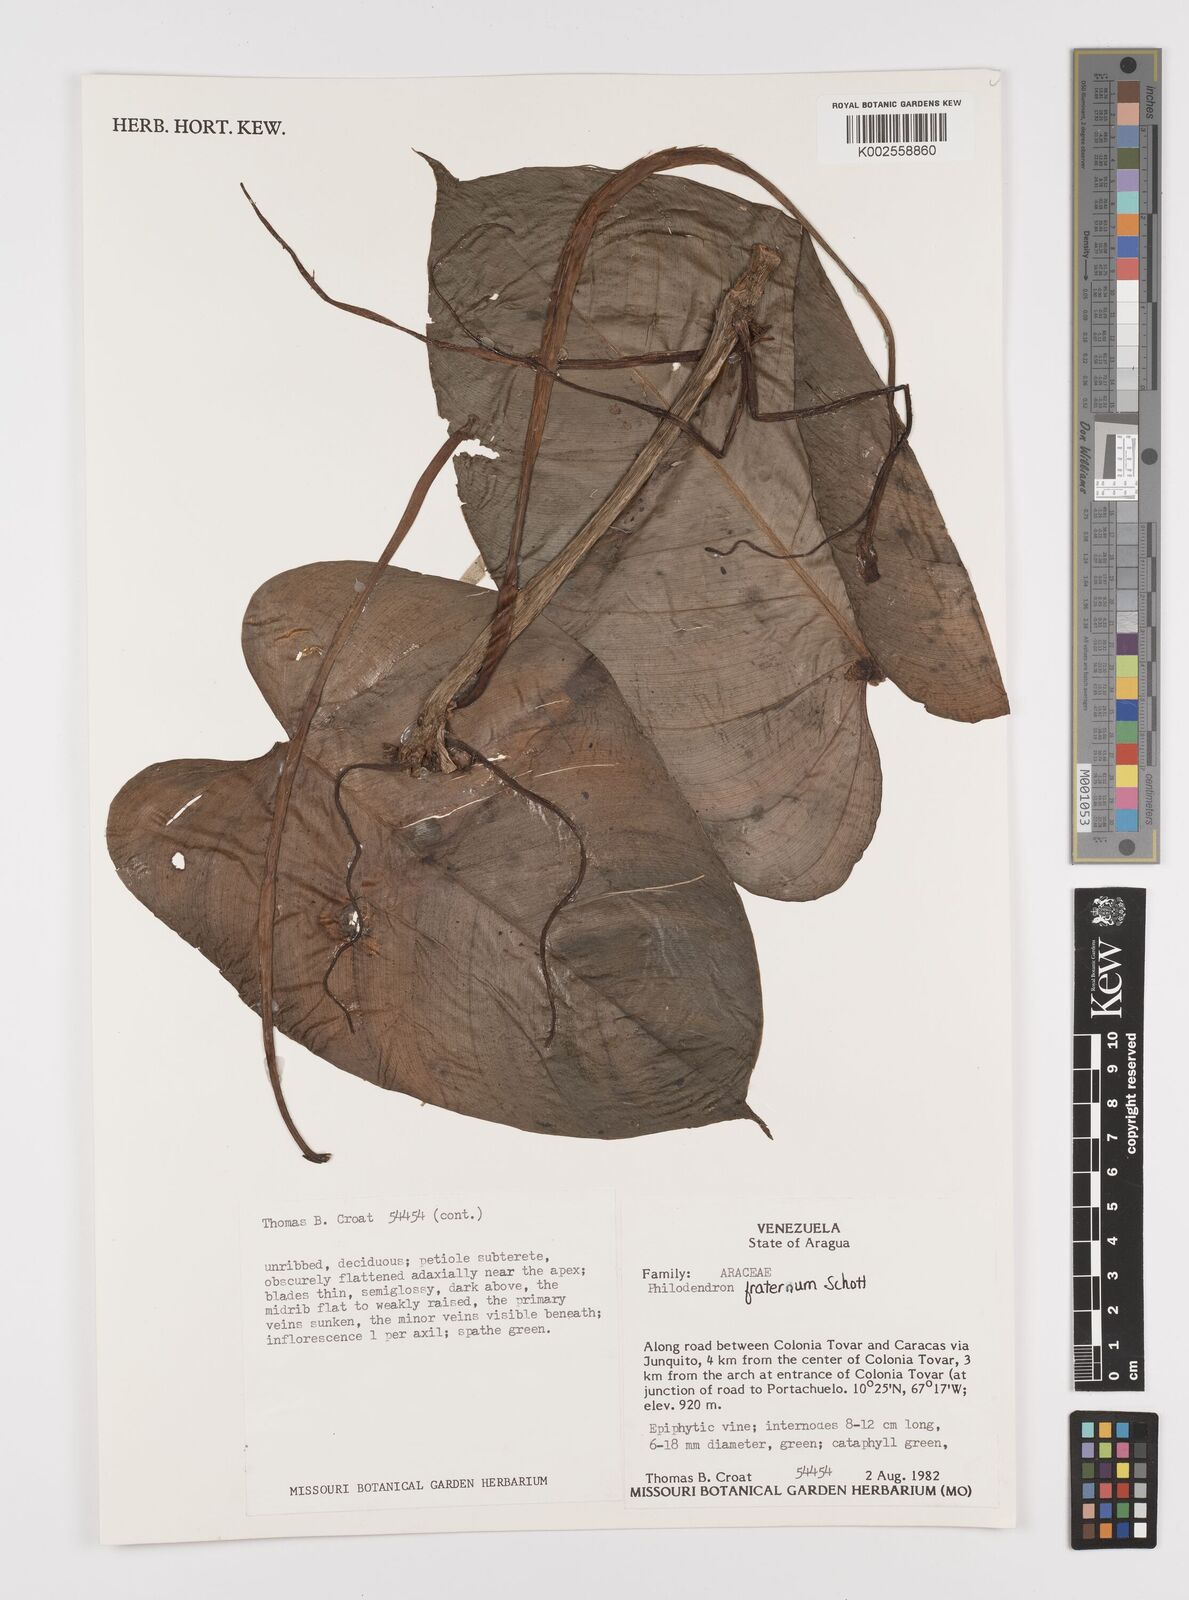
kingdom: Plantae
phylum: Tracheophyta
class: Liliopsida
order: Alismatales
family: Araceae
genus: Philodendron
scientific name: Philodendron fraternum
